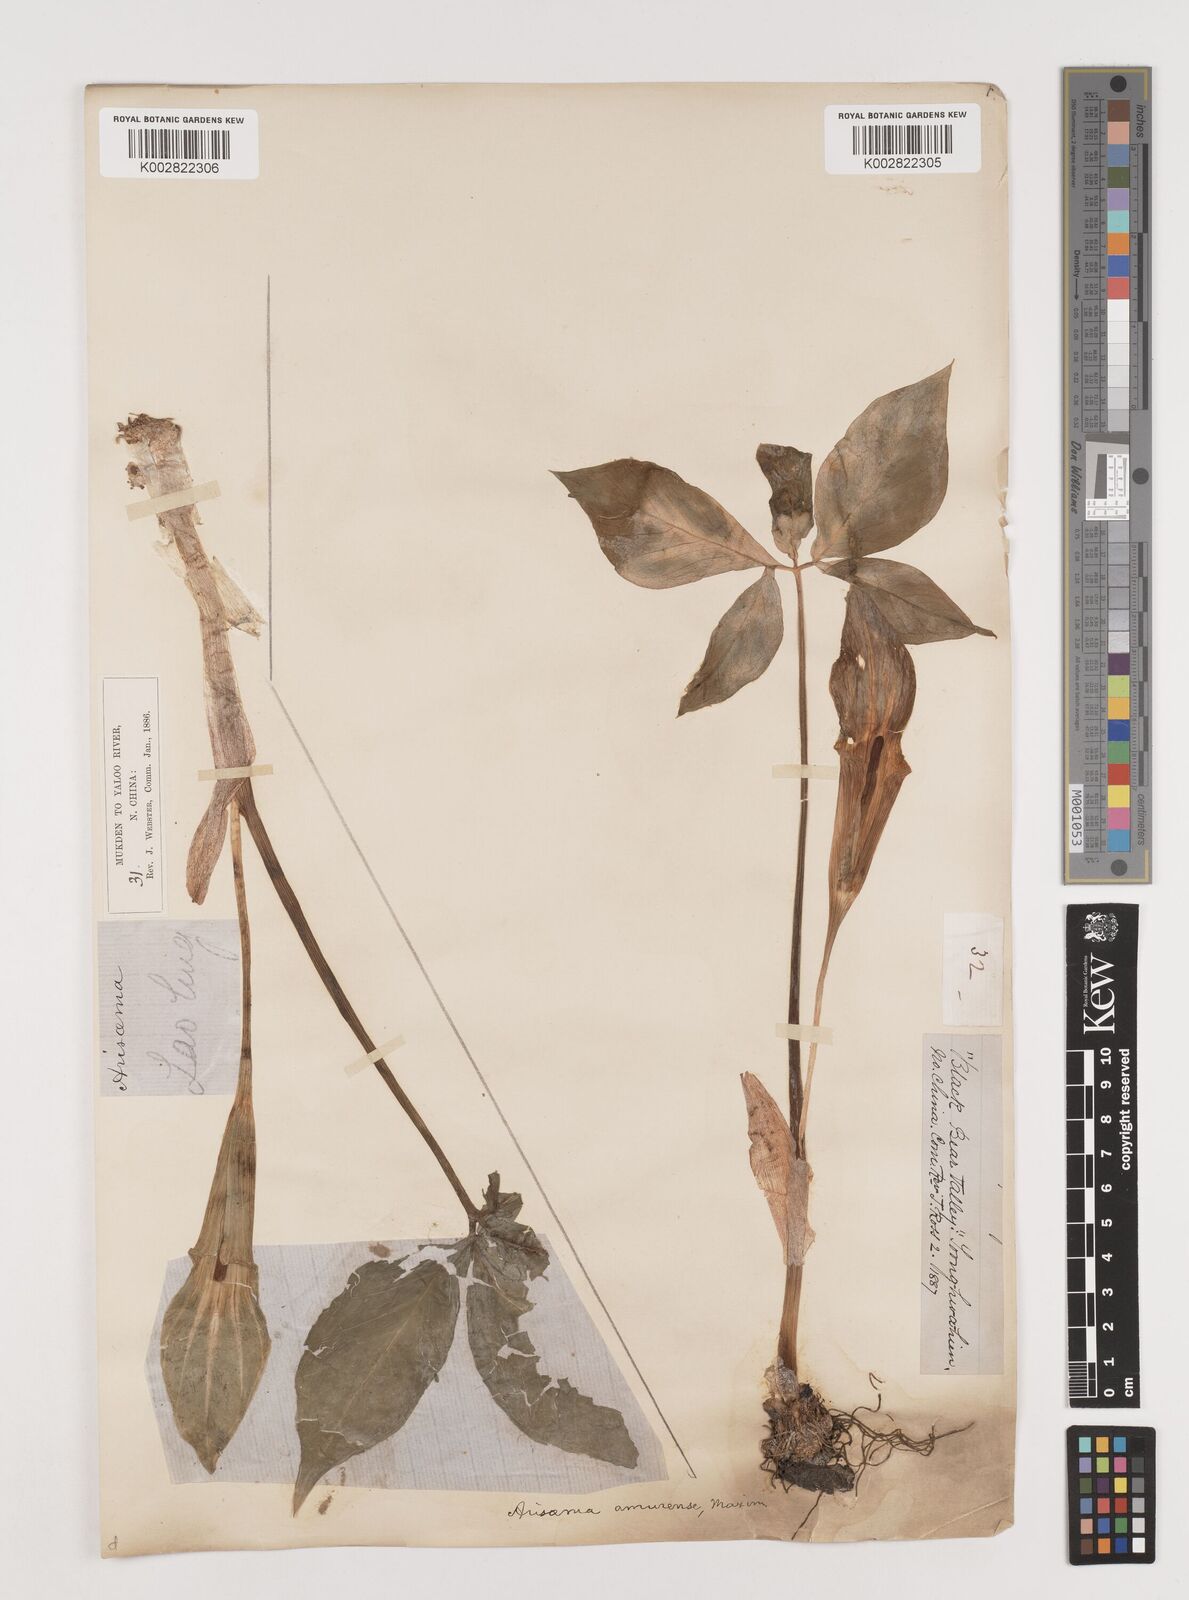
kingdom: Plantae
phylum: Tracheophyta
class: Liliopsida
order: Alismatales
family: Araceae
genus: Arisaema
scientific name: Arisaema amurense
